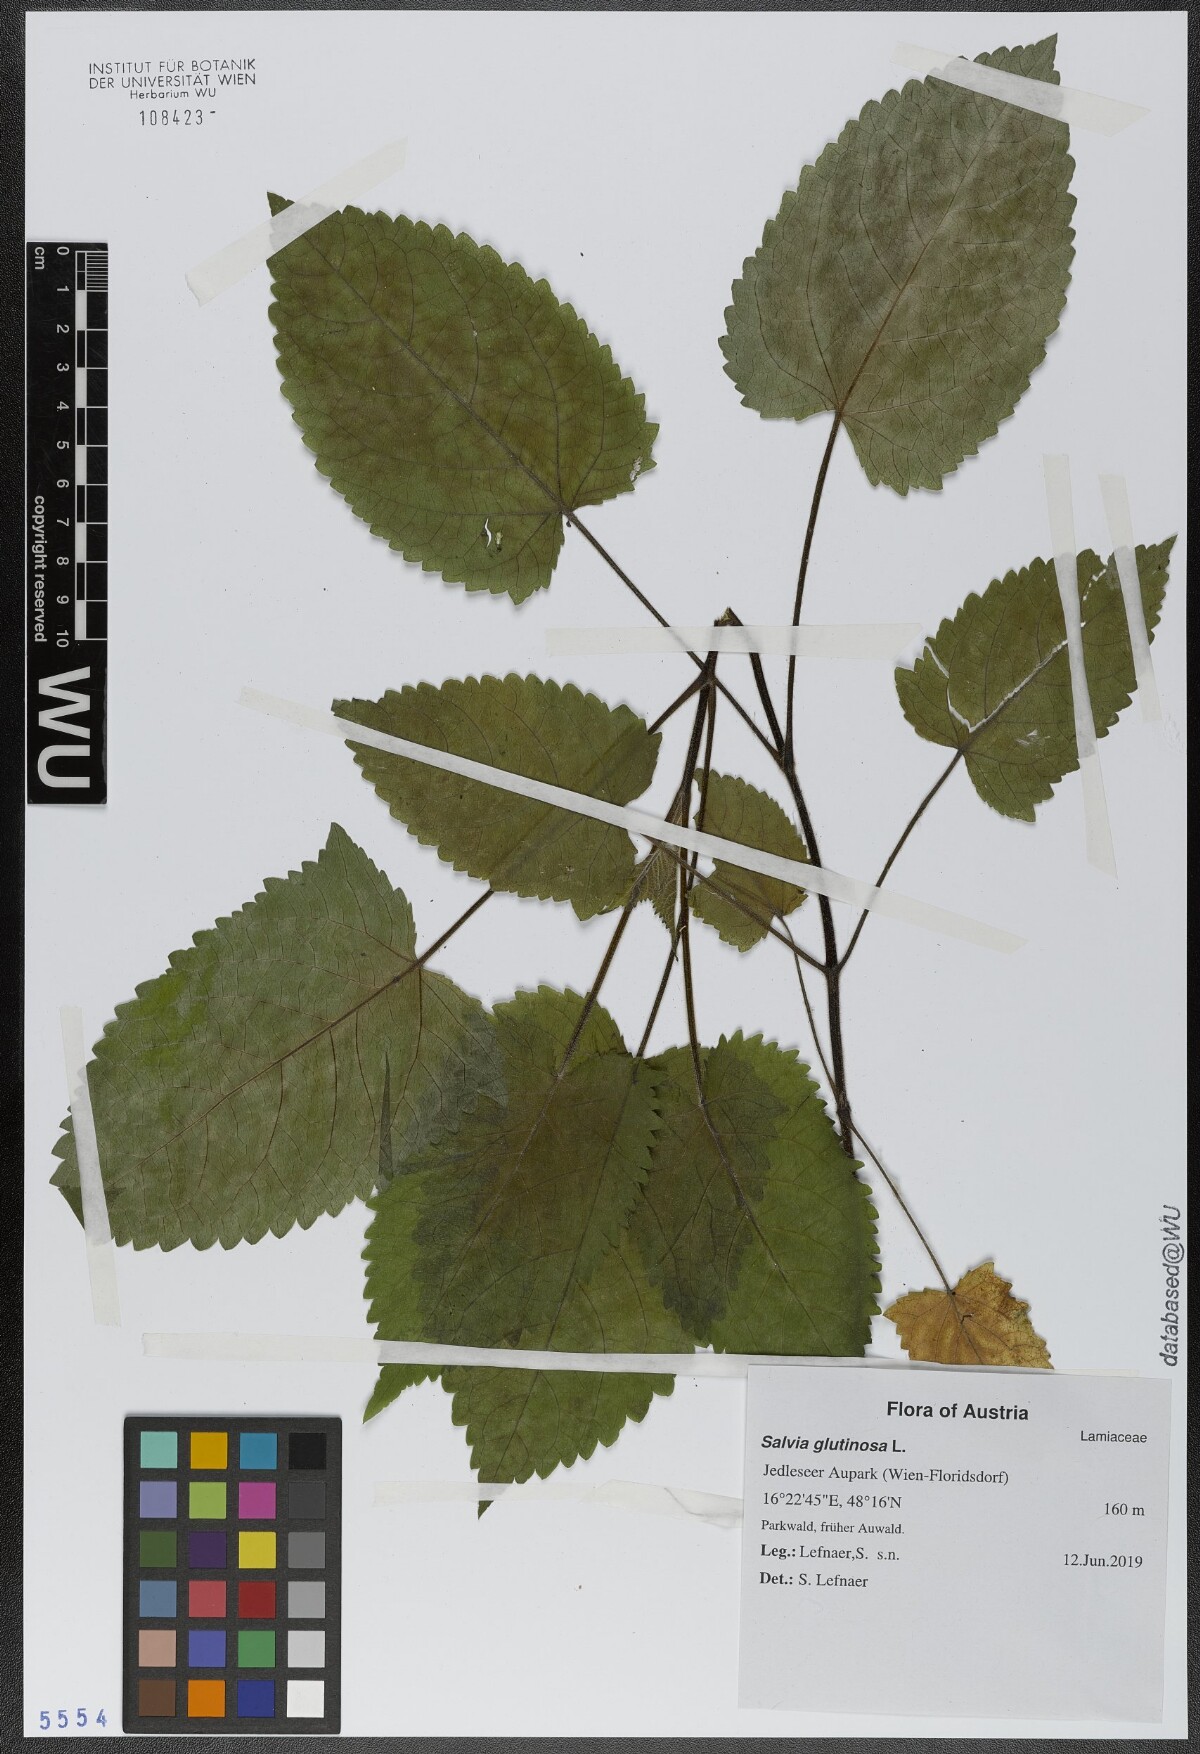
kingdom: Plantae
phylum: Tracheophyta
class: Magnoliopsida
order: Lamiales
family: Lamiaceae
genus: Salvia
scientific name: Salvia glutinosa
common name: Sticky clary
